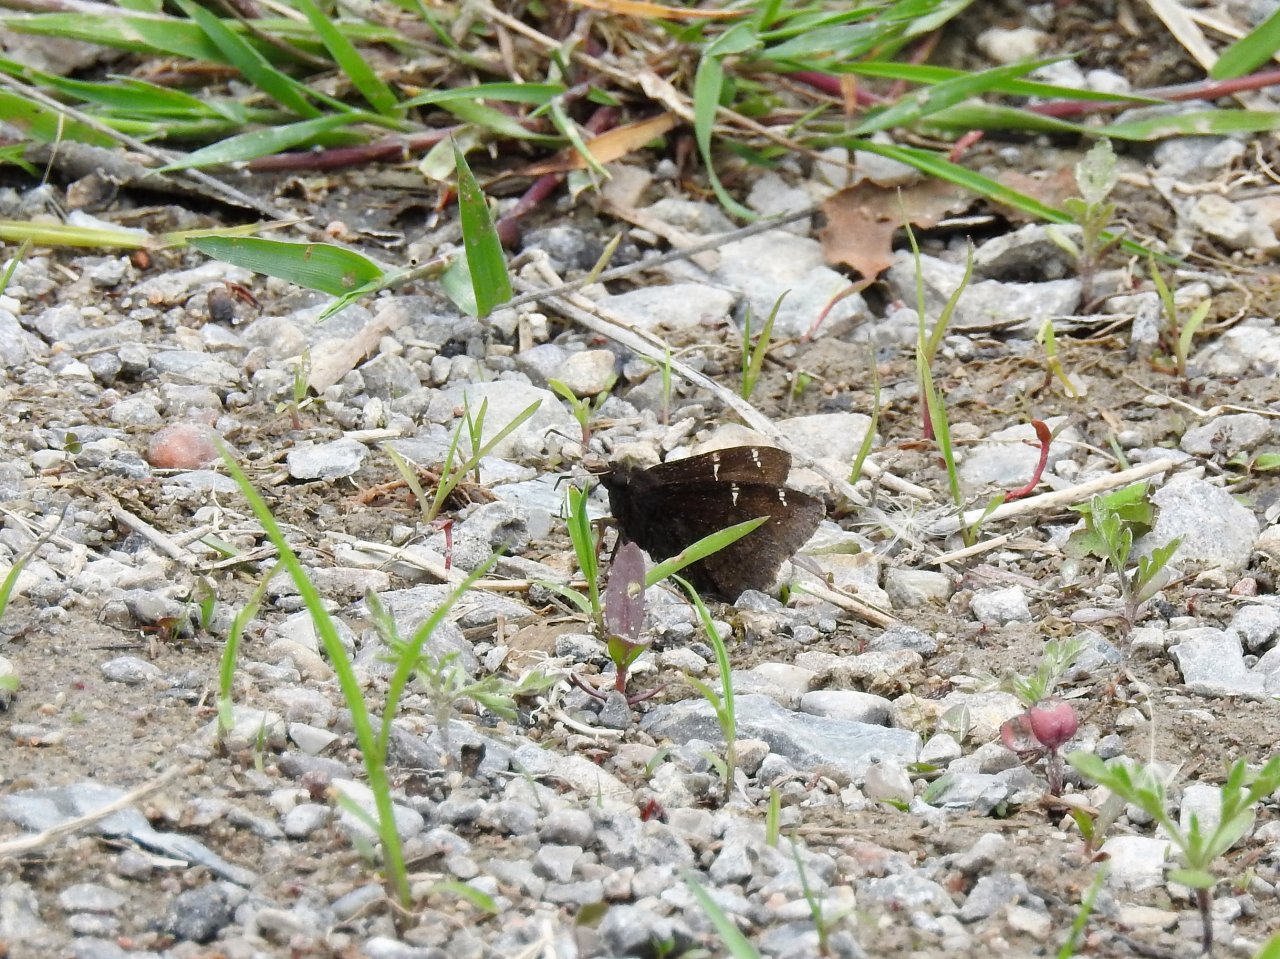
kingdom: Animalia
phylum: Arthropoda
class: Insecta
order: Lepidoptera
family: Hesperiidae
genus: Autochton
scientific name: Autochton
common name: Northern Cloudywing
